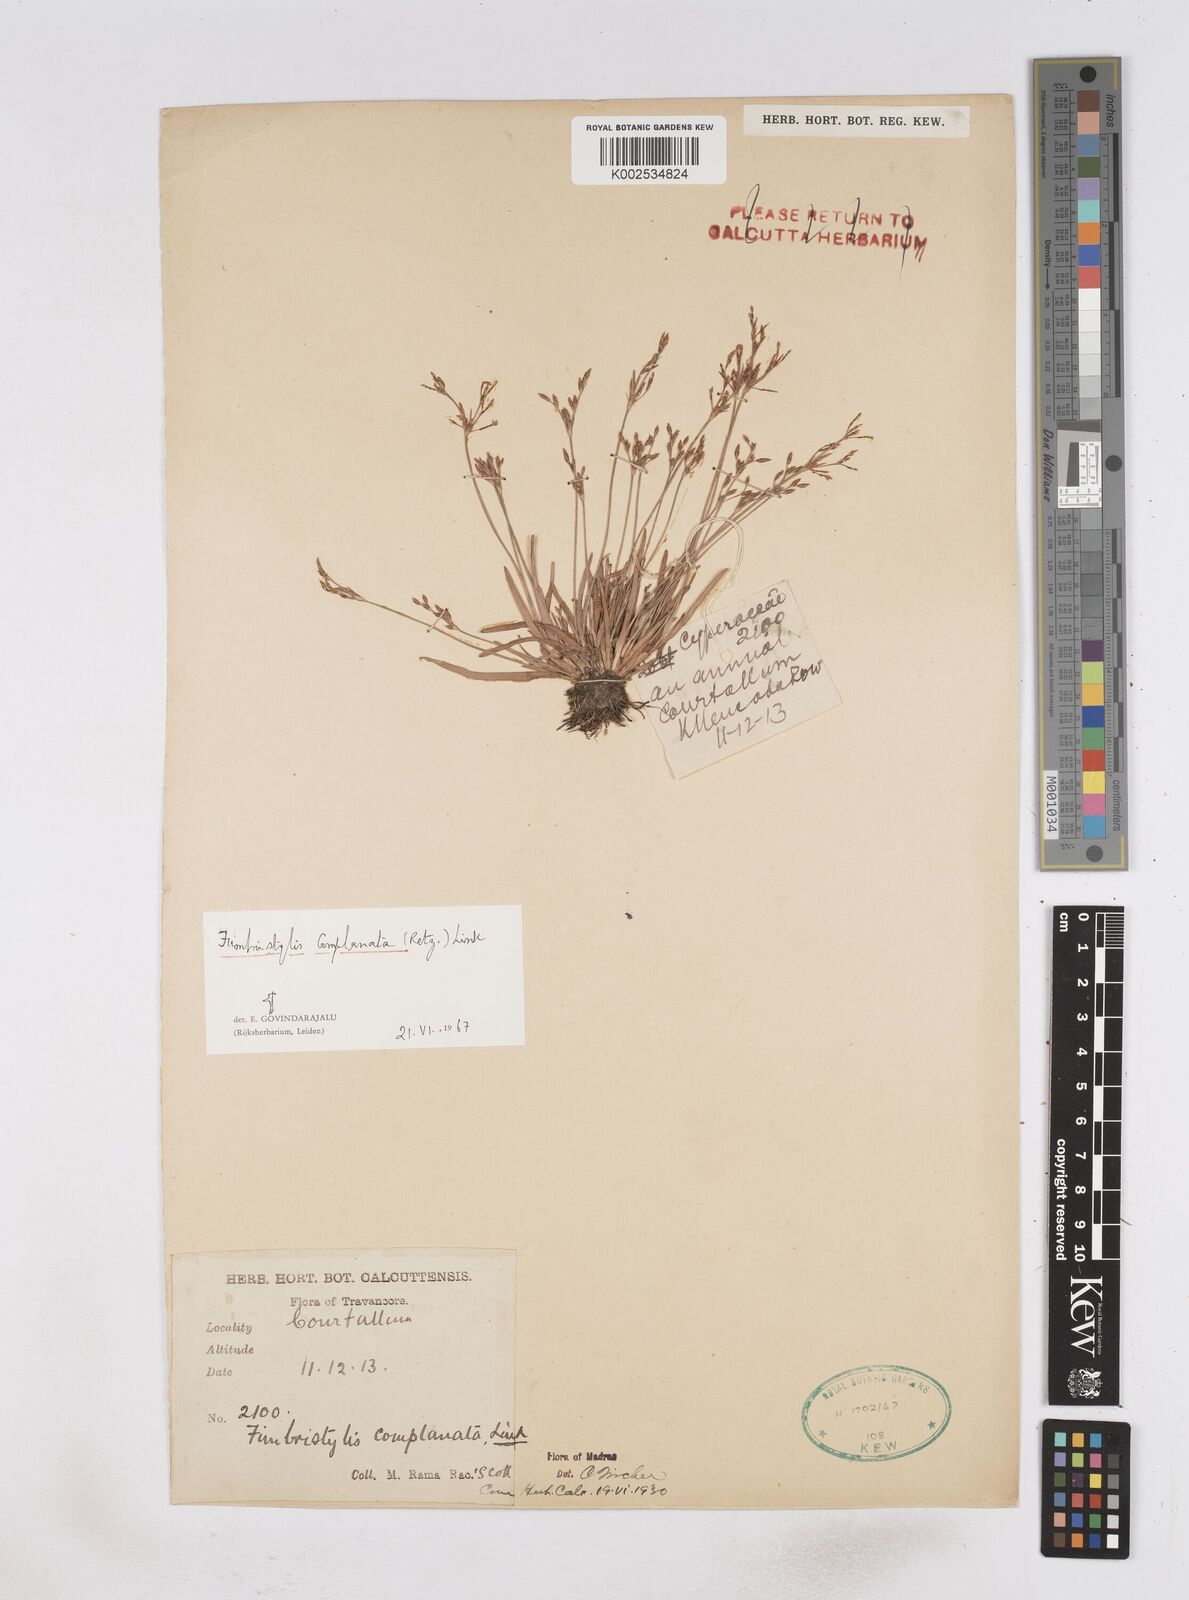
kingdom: Plantae
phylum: Tracheophyta
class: Liliopsida
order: Poales
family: Cyperaceae
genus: Fimbristylis
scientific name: Fimbristylis microcarya
